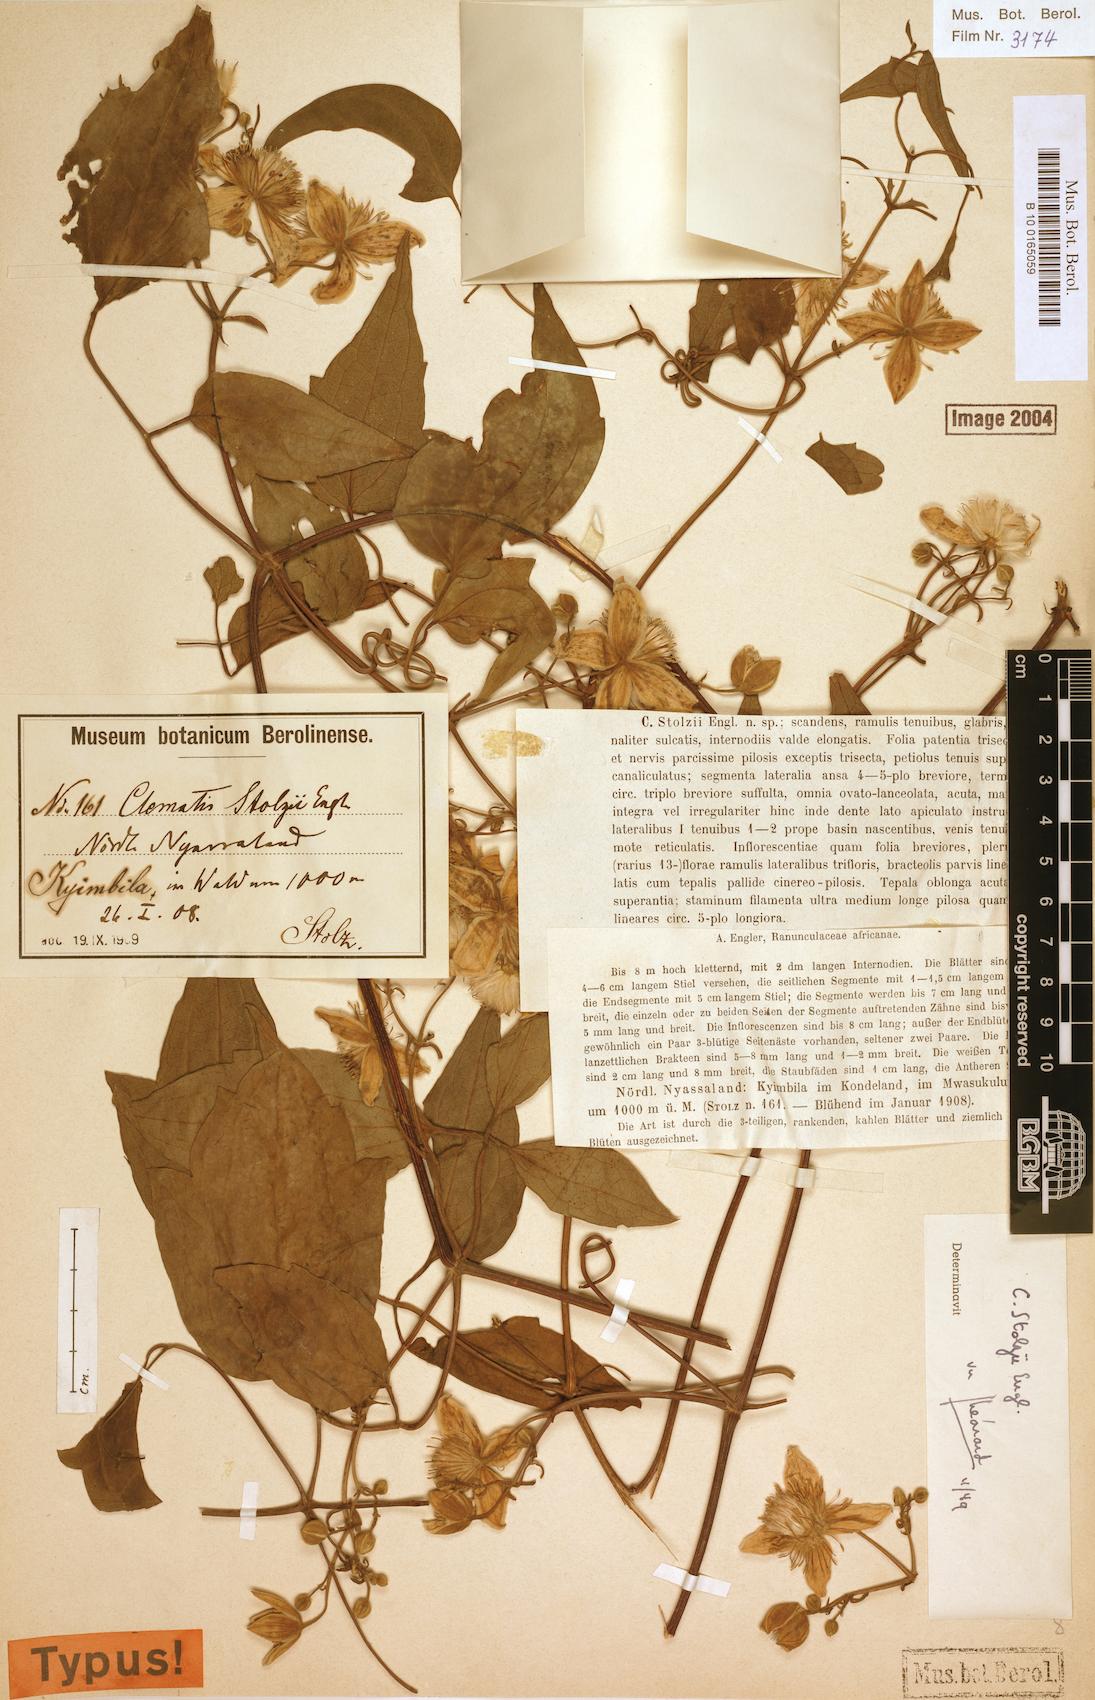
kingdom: Plantae
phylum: Tracheophyta
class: Magnoliopsida
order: Ranunculales
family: Ranunculaceae
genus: Clematis
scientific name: Clematis viridiflora
